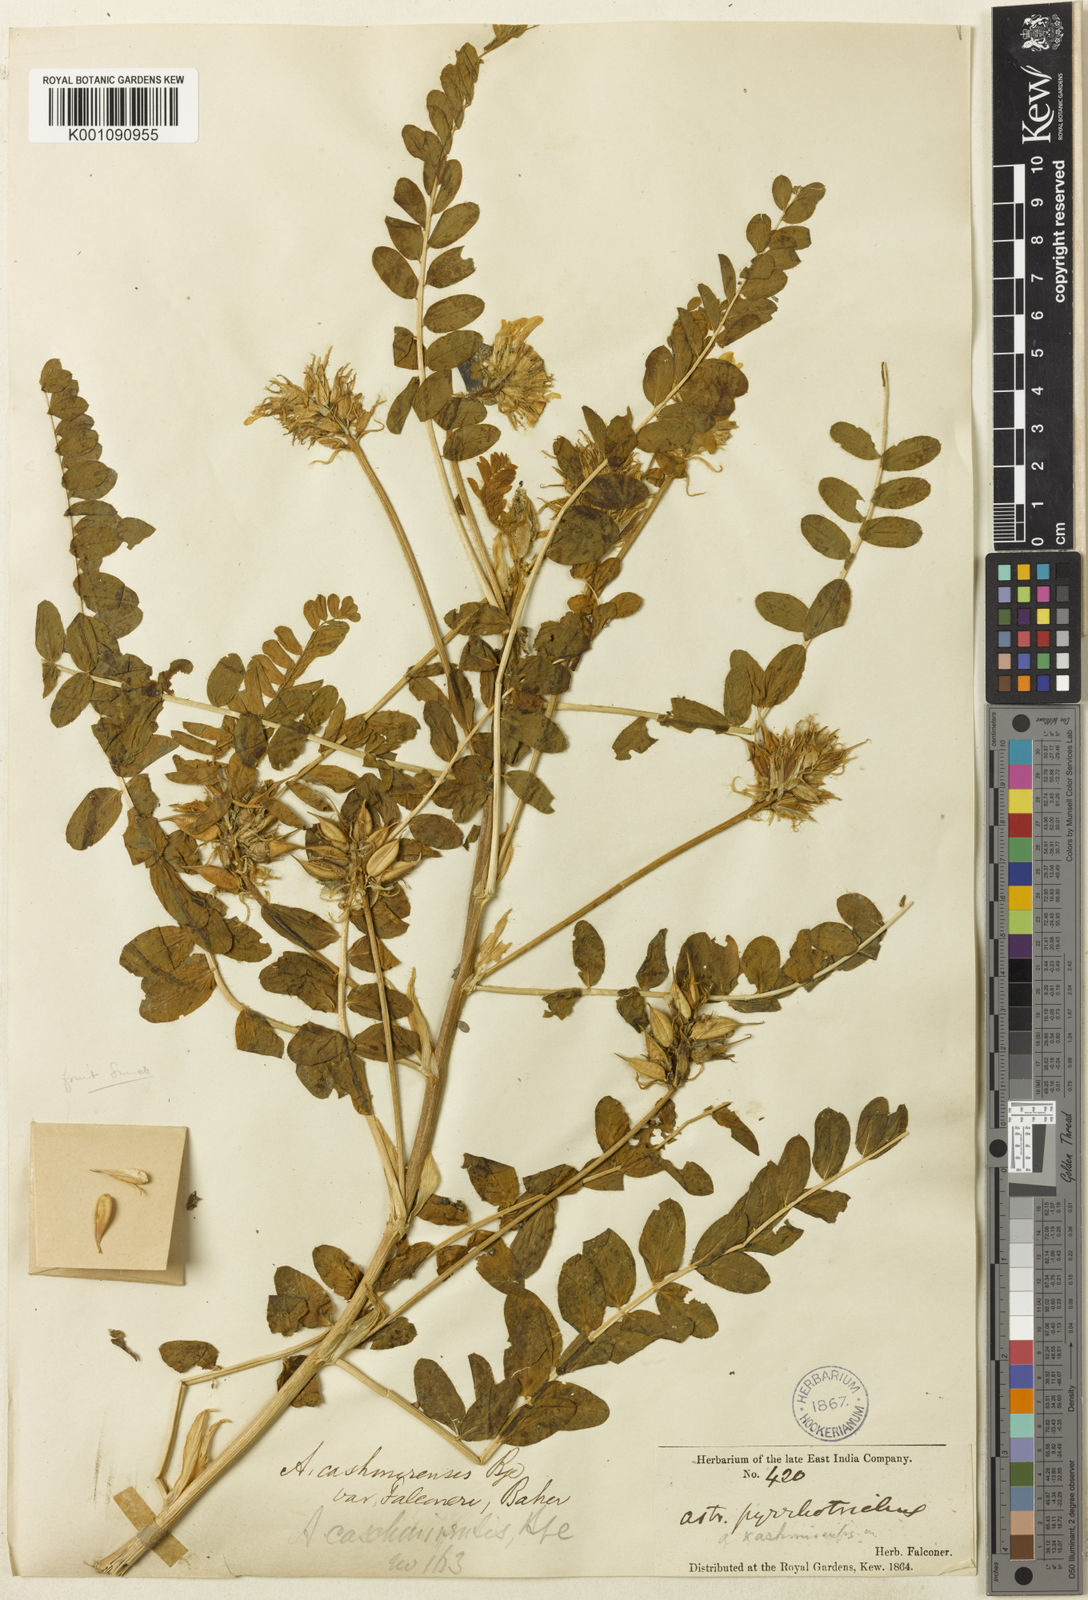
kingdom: Plantae
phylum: Tracheophyta
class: Magnoliopsida
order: Fabales
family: Fabaceae
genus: Astragalus
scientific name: Astragalus
